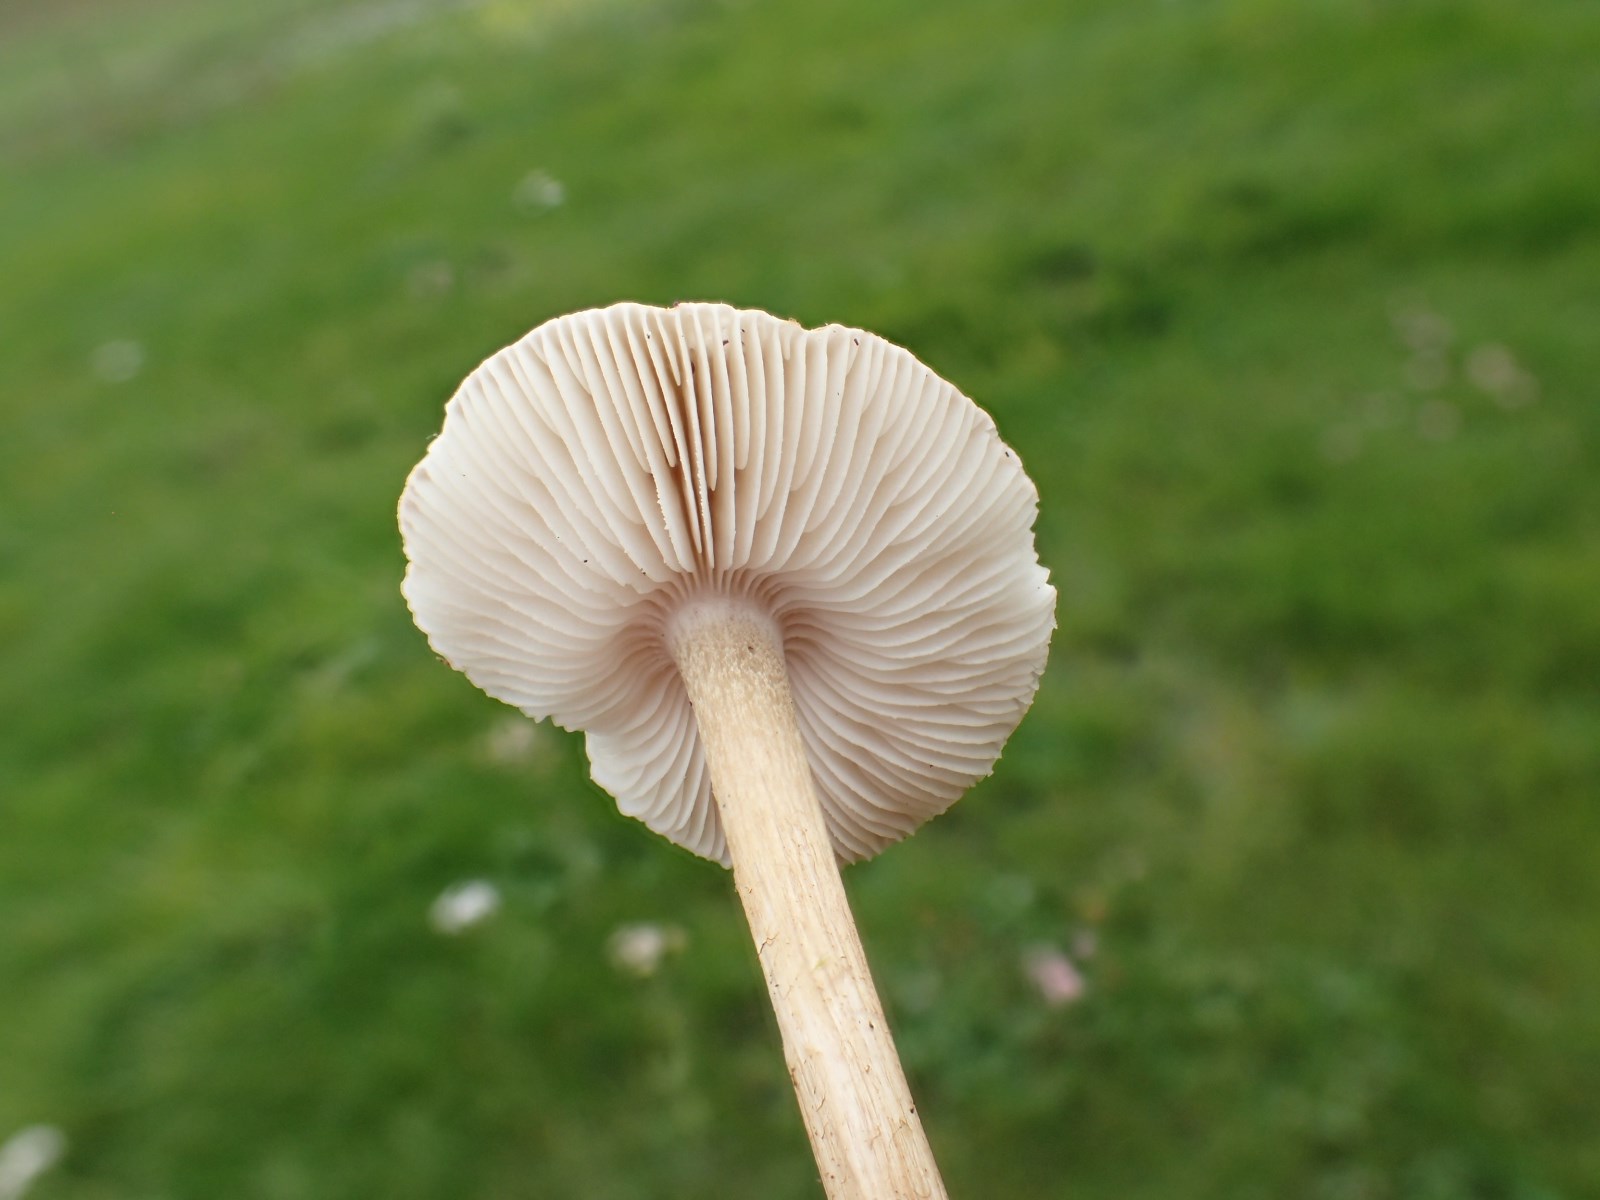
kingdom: Fungi
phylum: Basidiomycota
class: Agaricomycetes
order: Agaricales
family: Tricholomataceae
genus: Melanoleuca
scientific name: Melanoleuca
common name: munkehat
